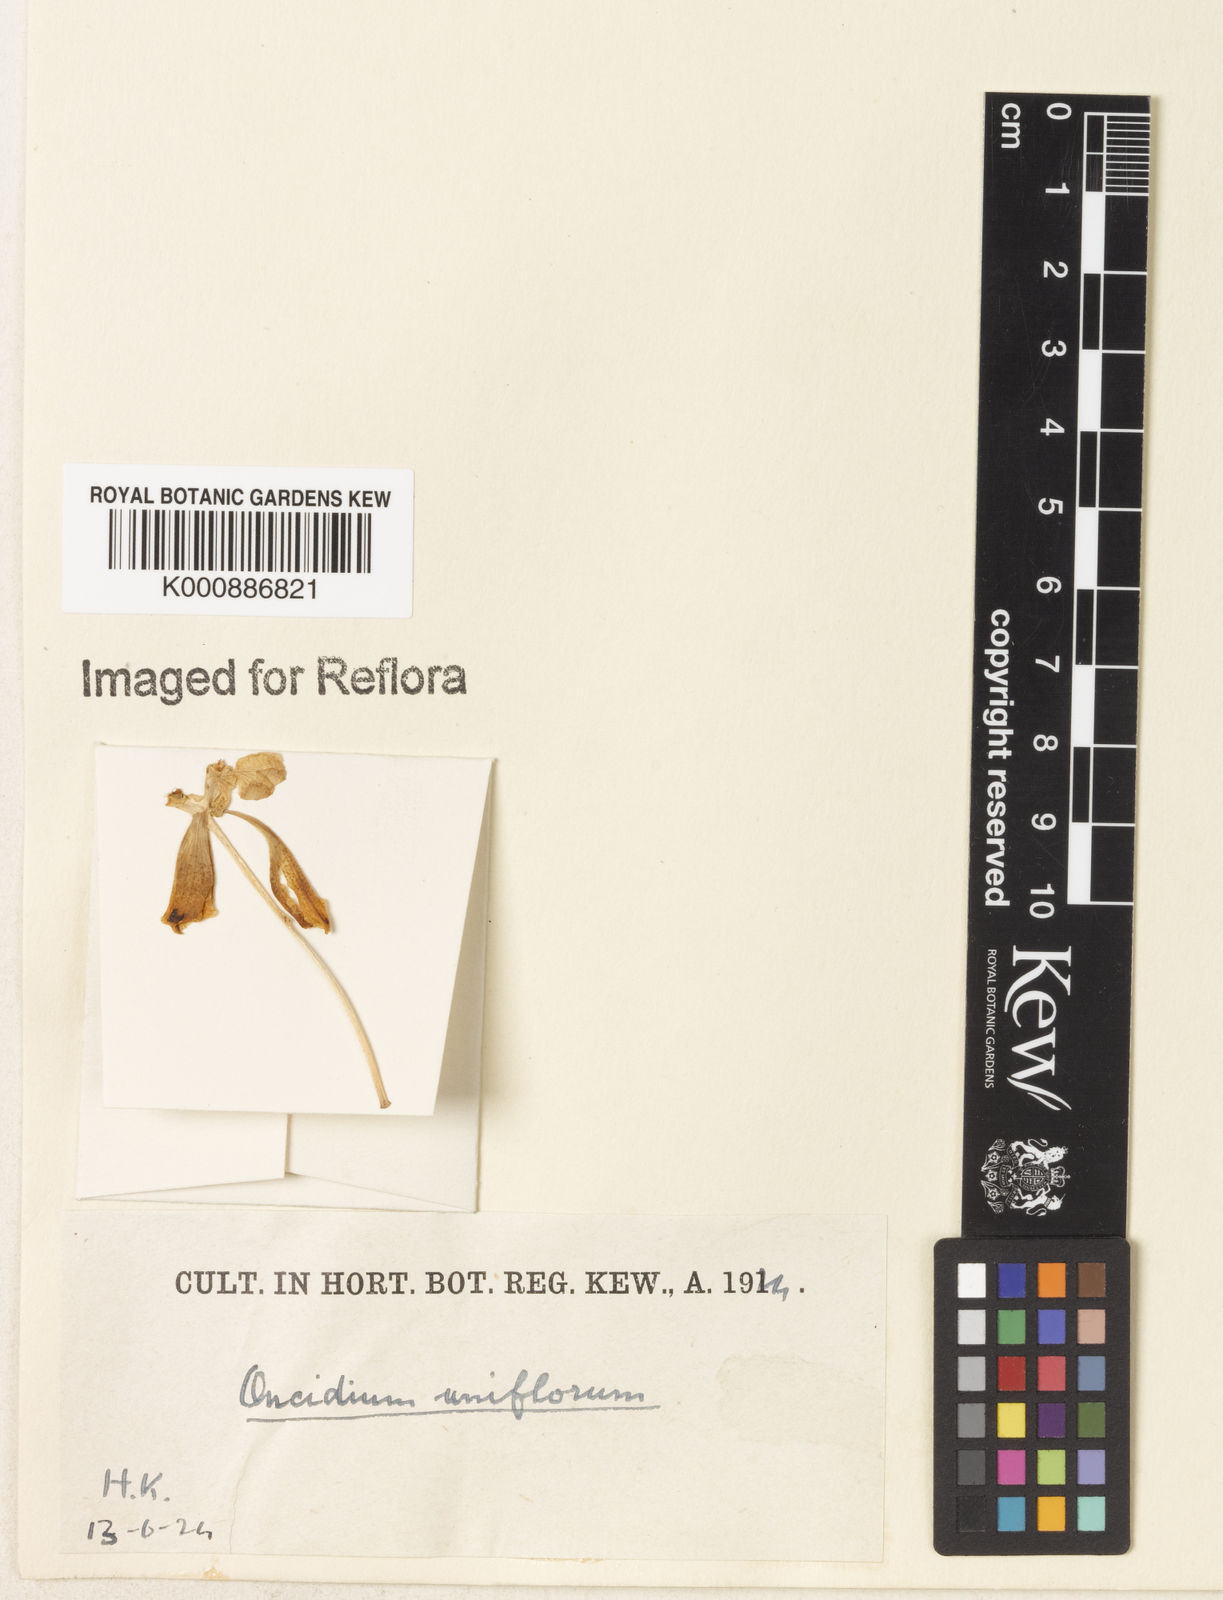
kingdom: Plantae
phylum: Tracheophyta
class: Liliopsida
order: Asparagales
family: Orchidaceae
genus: Gomesa
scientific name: Gomesa uniflora
